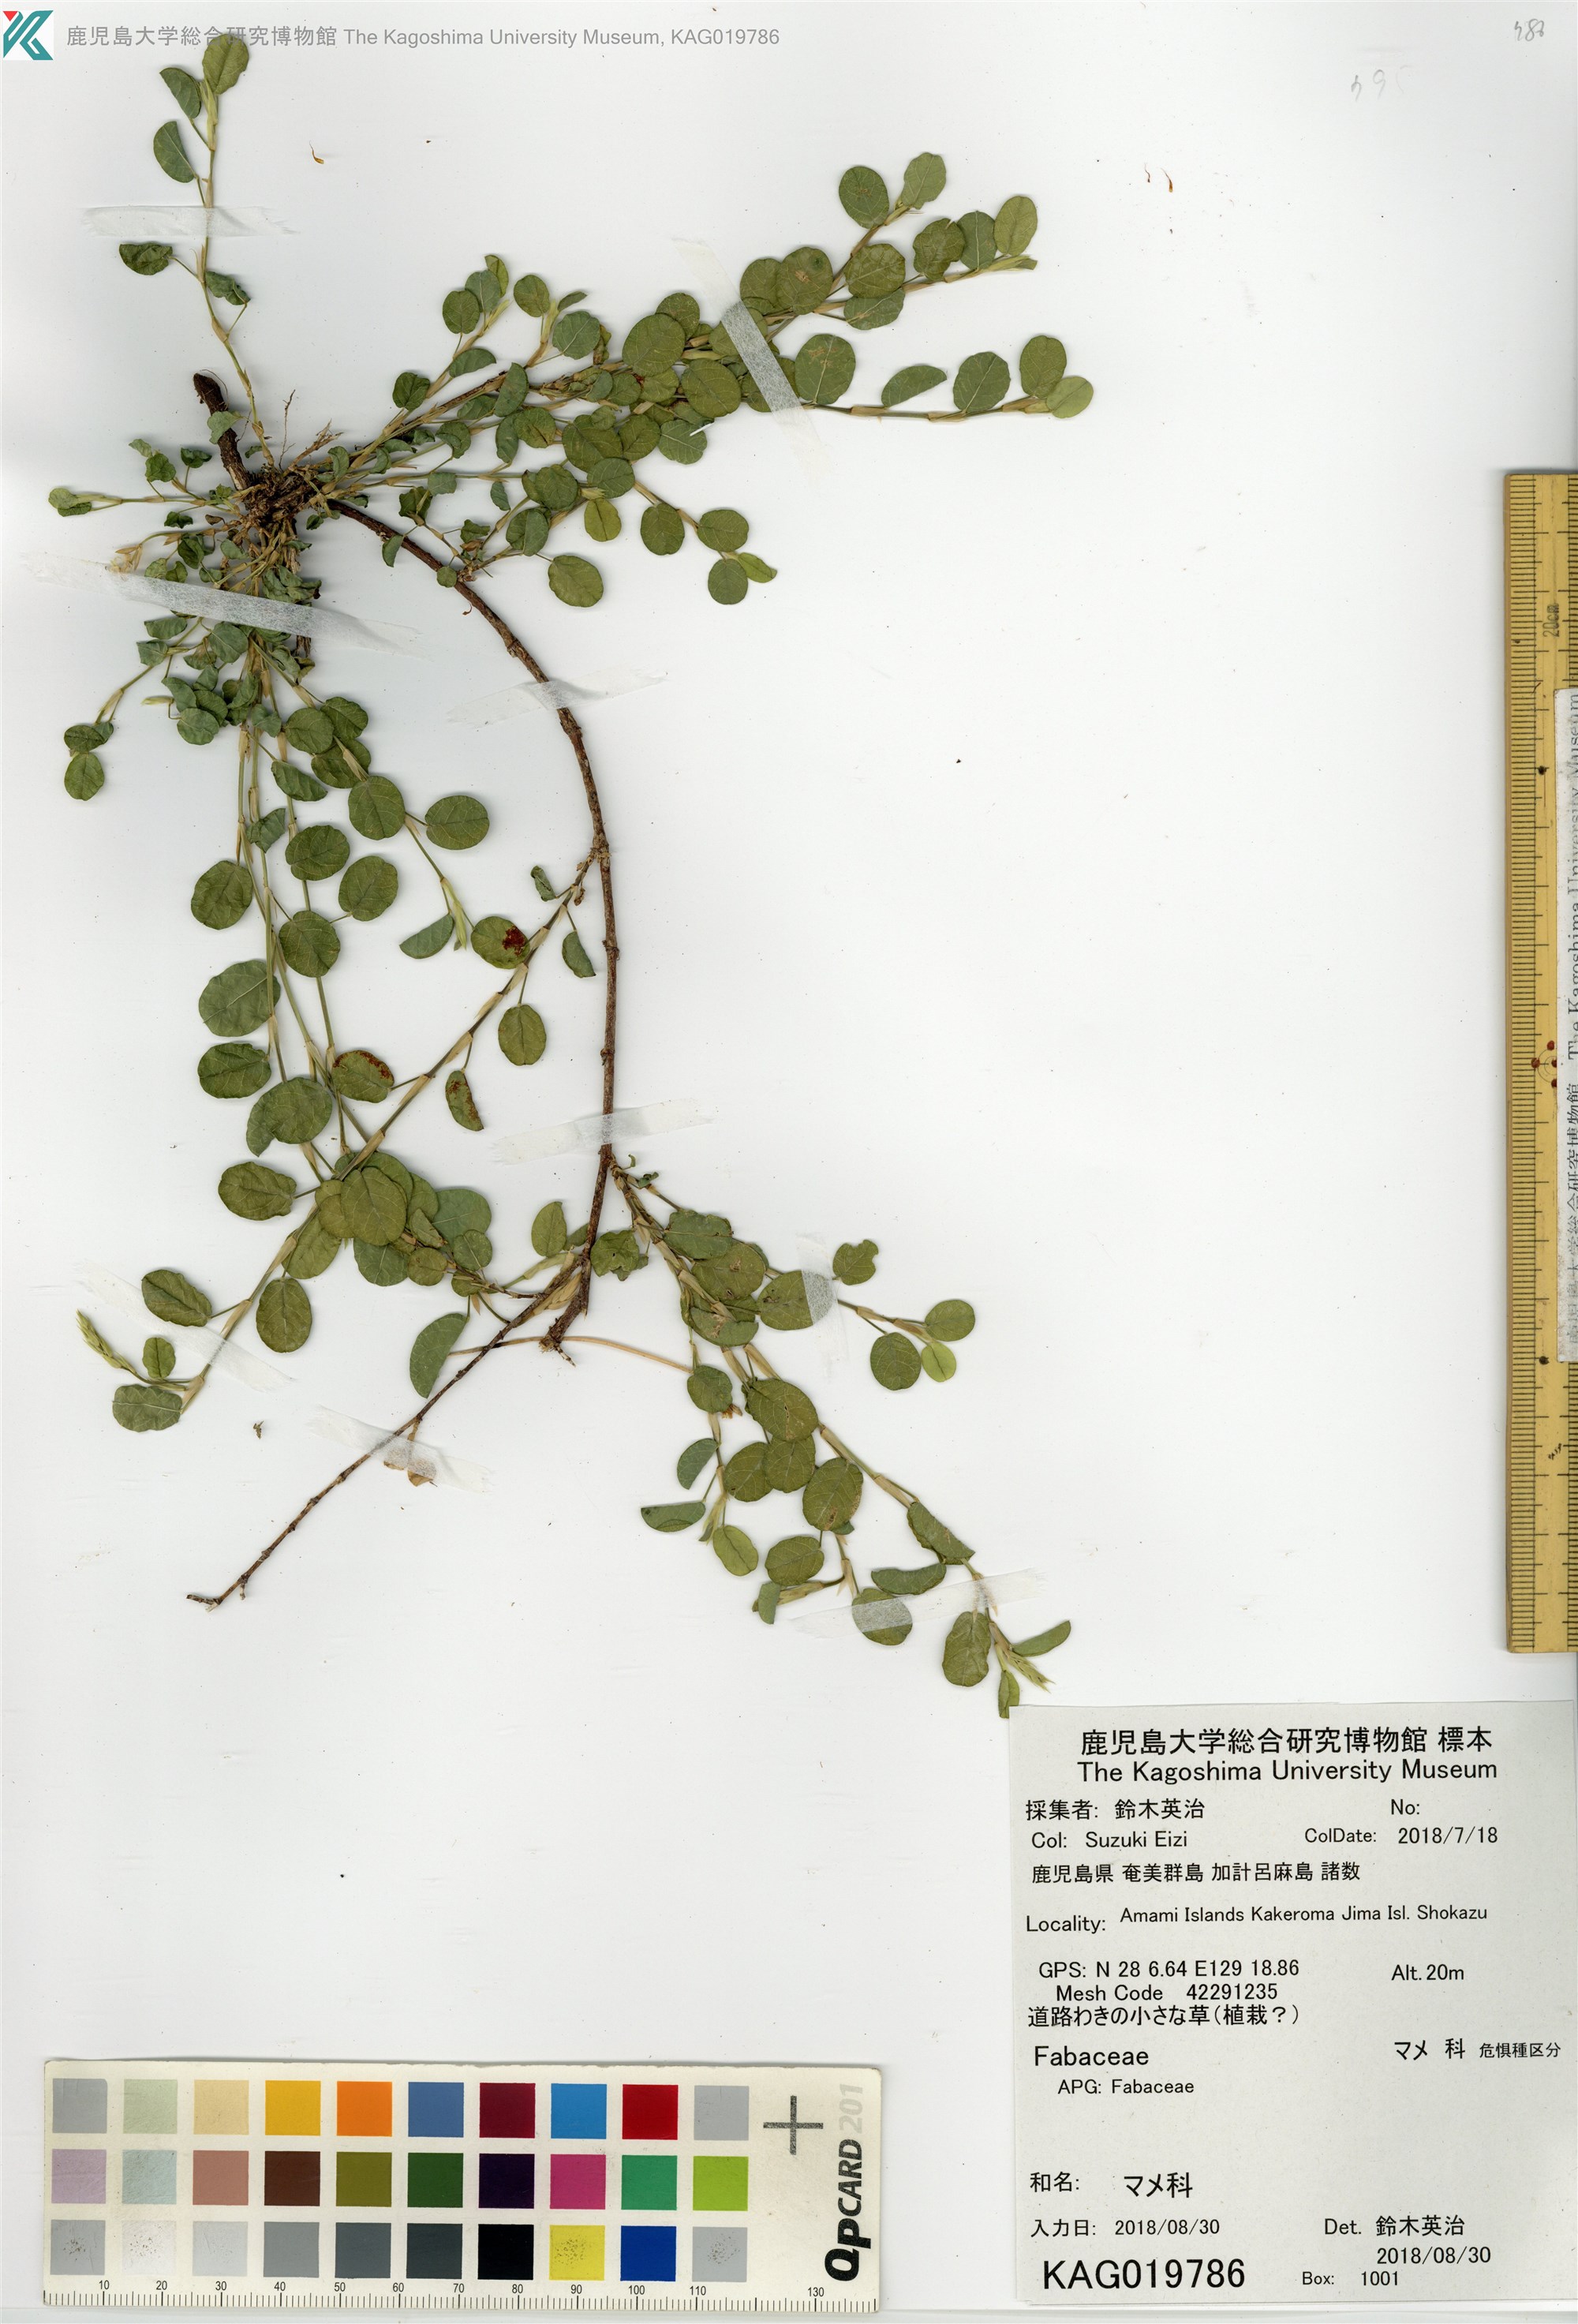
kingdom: Plantae
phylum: Tracheophyta
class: Magnoliopsida
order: Fabales
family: Fabaceae
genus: Alysicarpus
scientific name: Alysicarpus vaginalis
